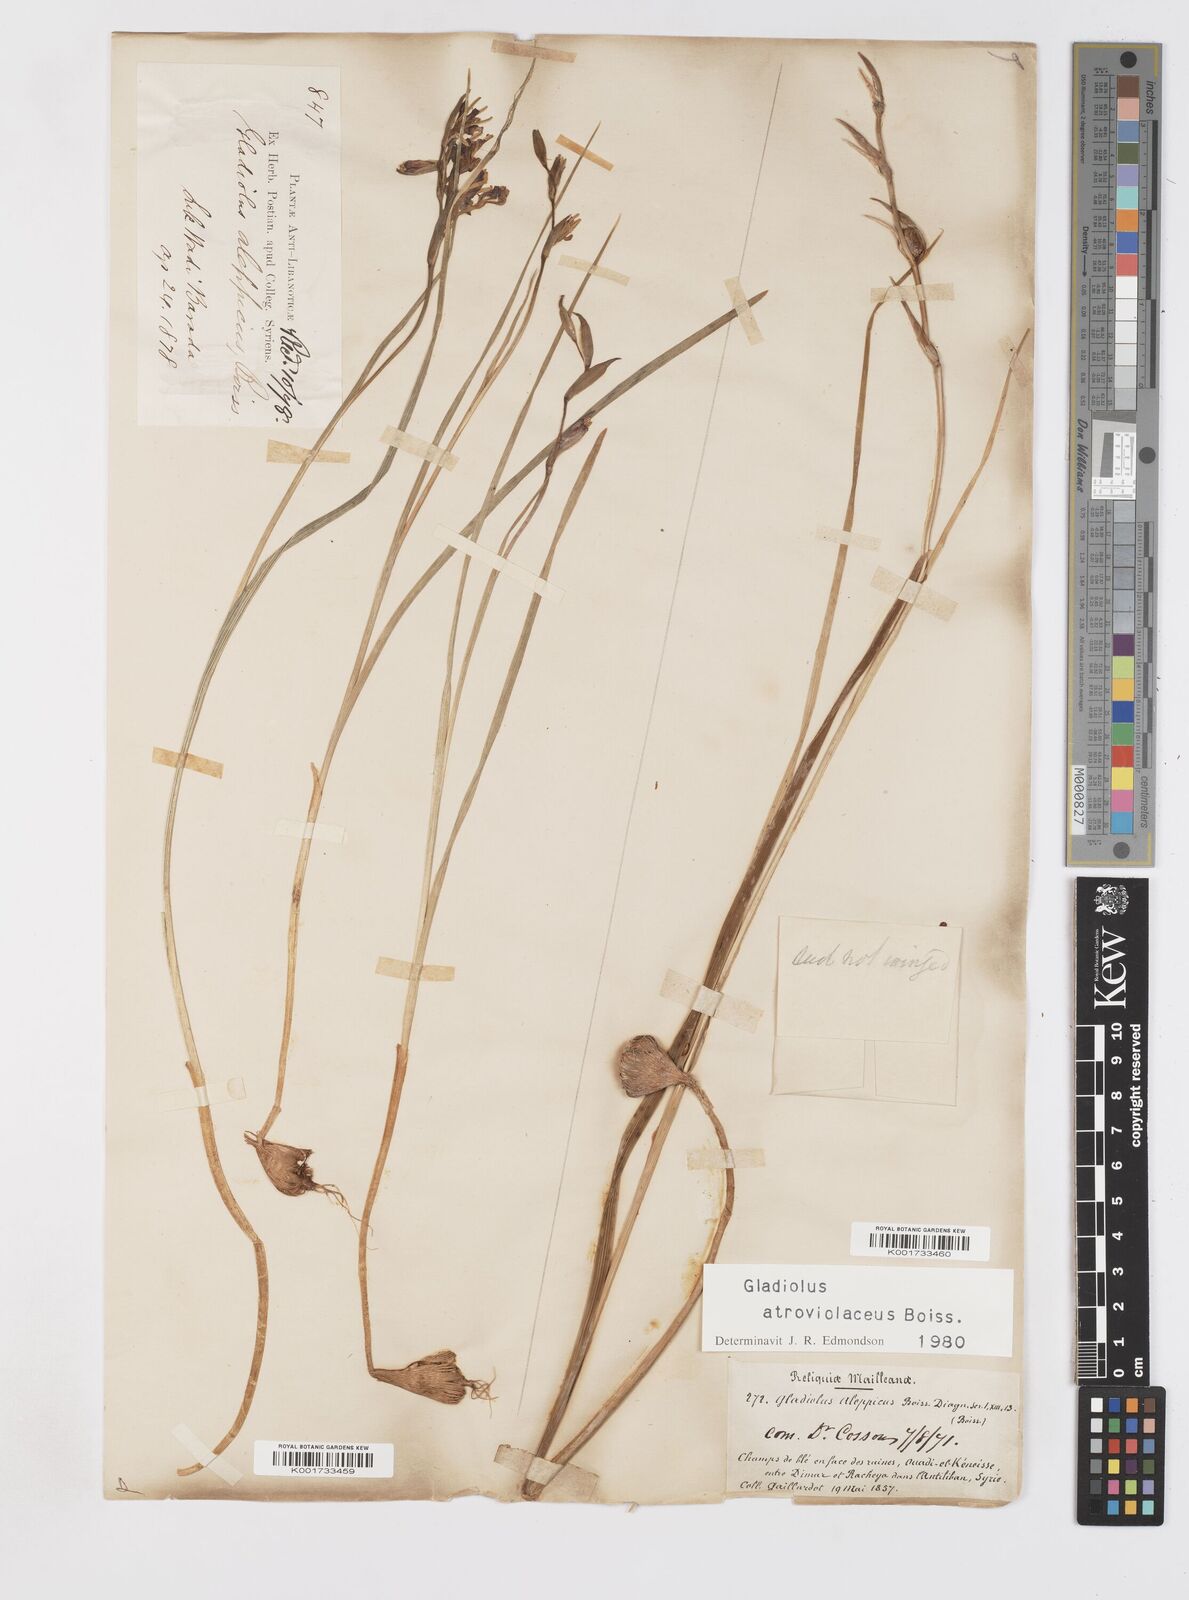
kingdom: Plantae
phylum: Tracheophyta
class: Liliopsida
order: Asparagales
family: Iridaceae
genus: Gladiolus
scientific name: Gladiolus atroviolaceus
